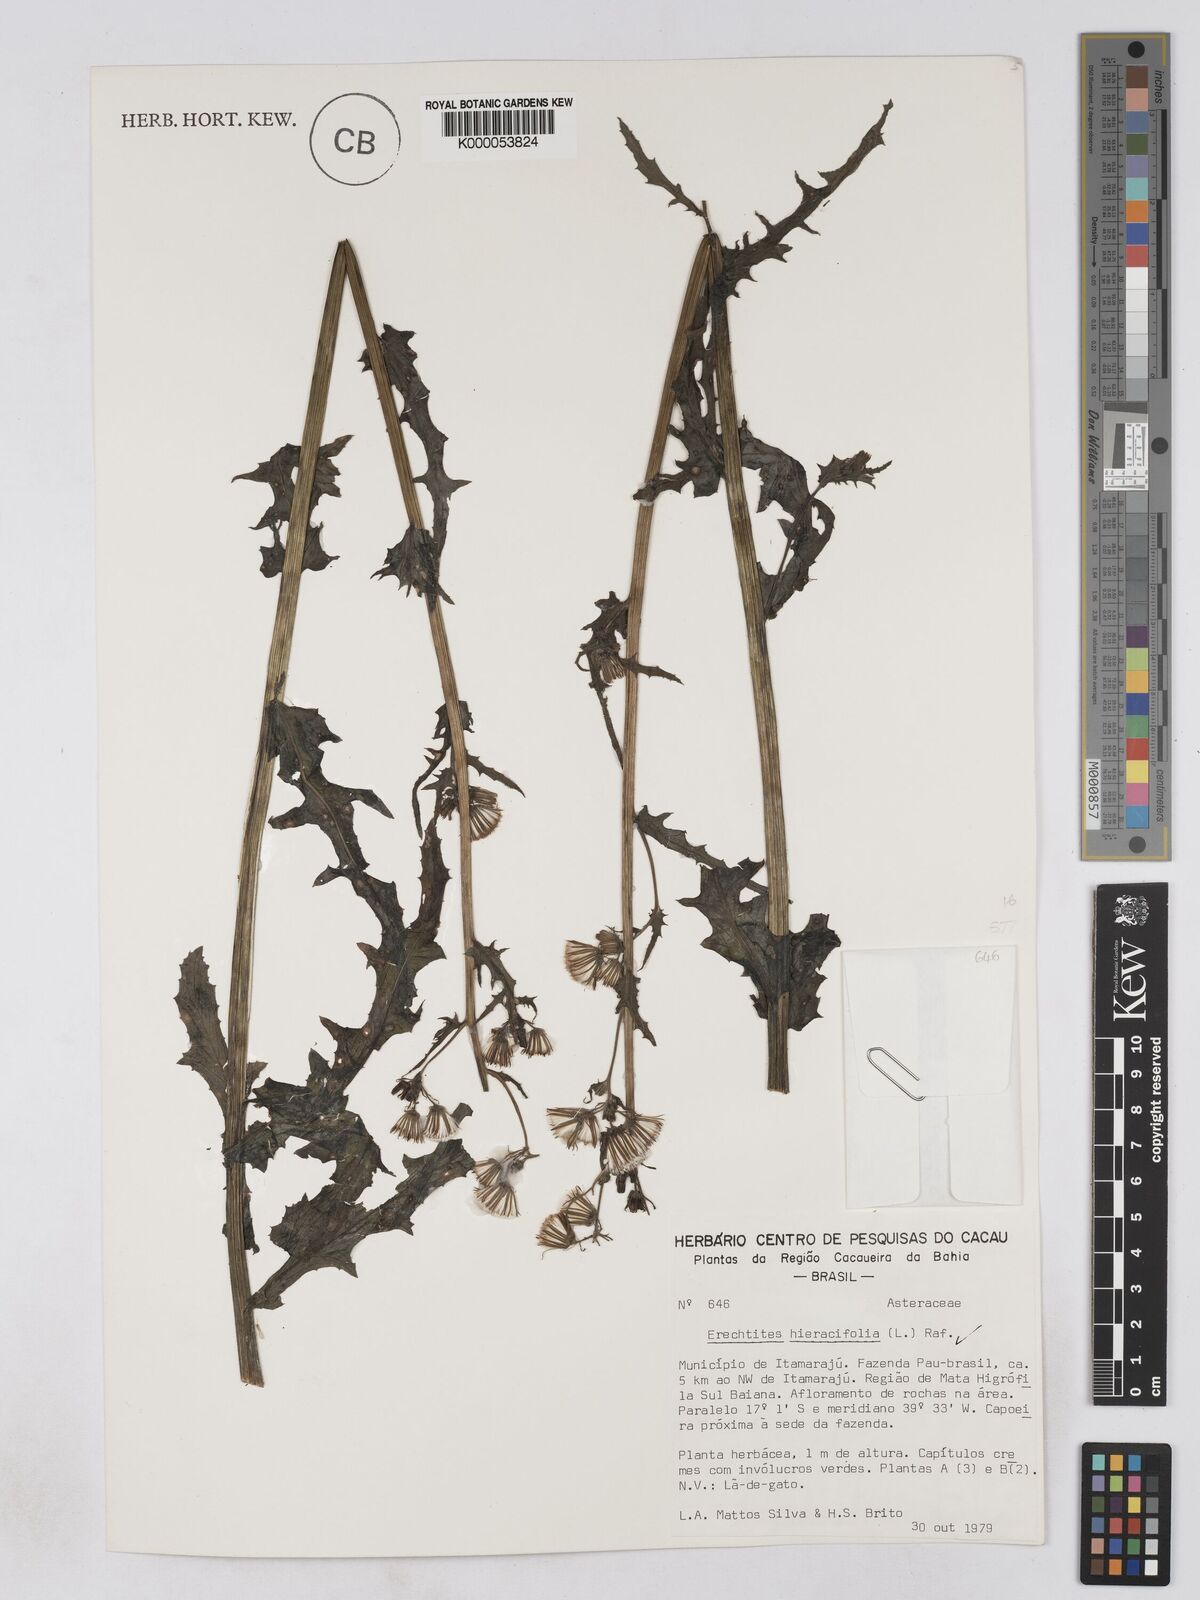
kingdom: Plantae
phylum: Tracheophyta
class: Magnoliopsida
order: Asterales
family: Asteraceae
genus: Erechtites
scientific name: Erechtites hieraciifolius
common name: American burnweed
